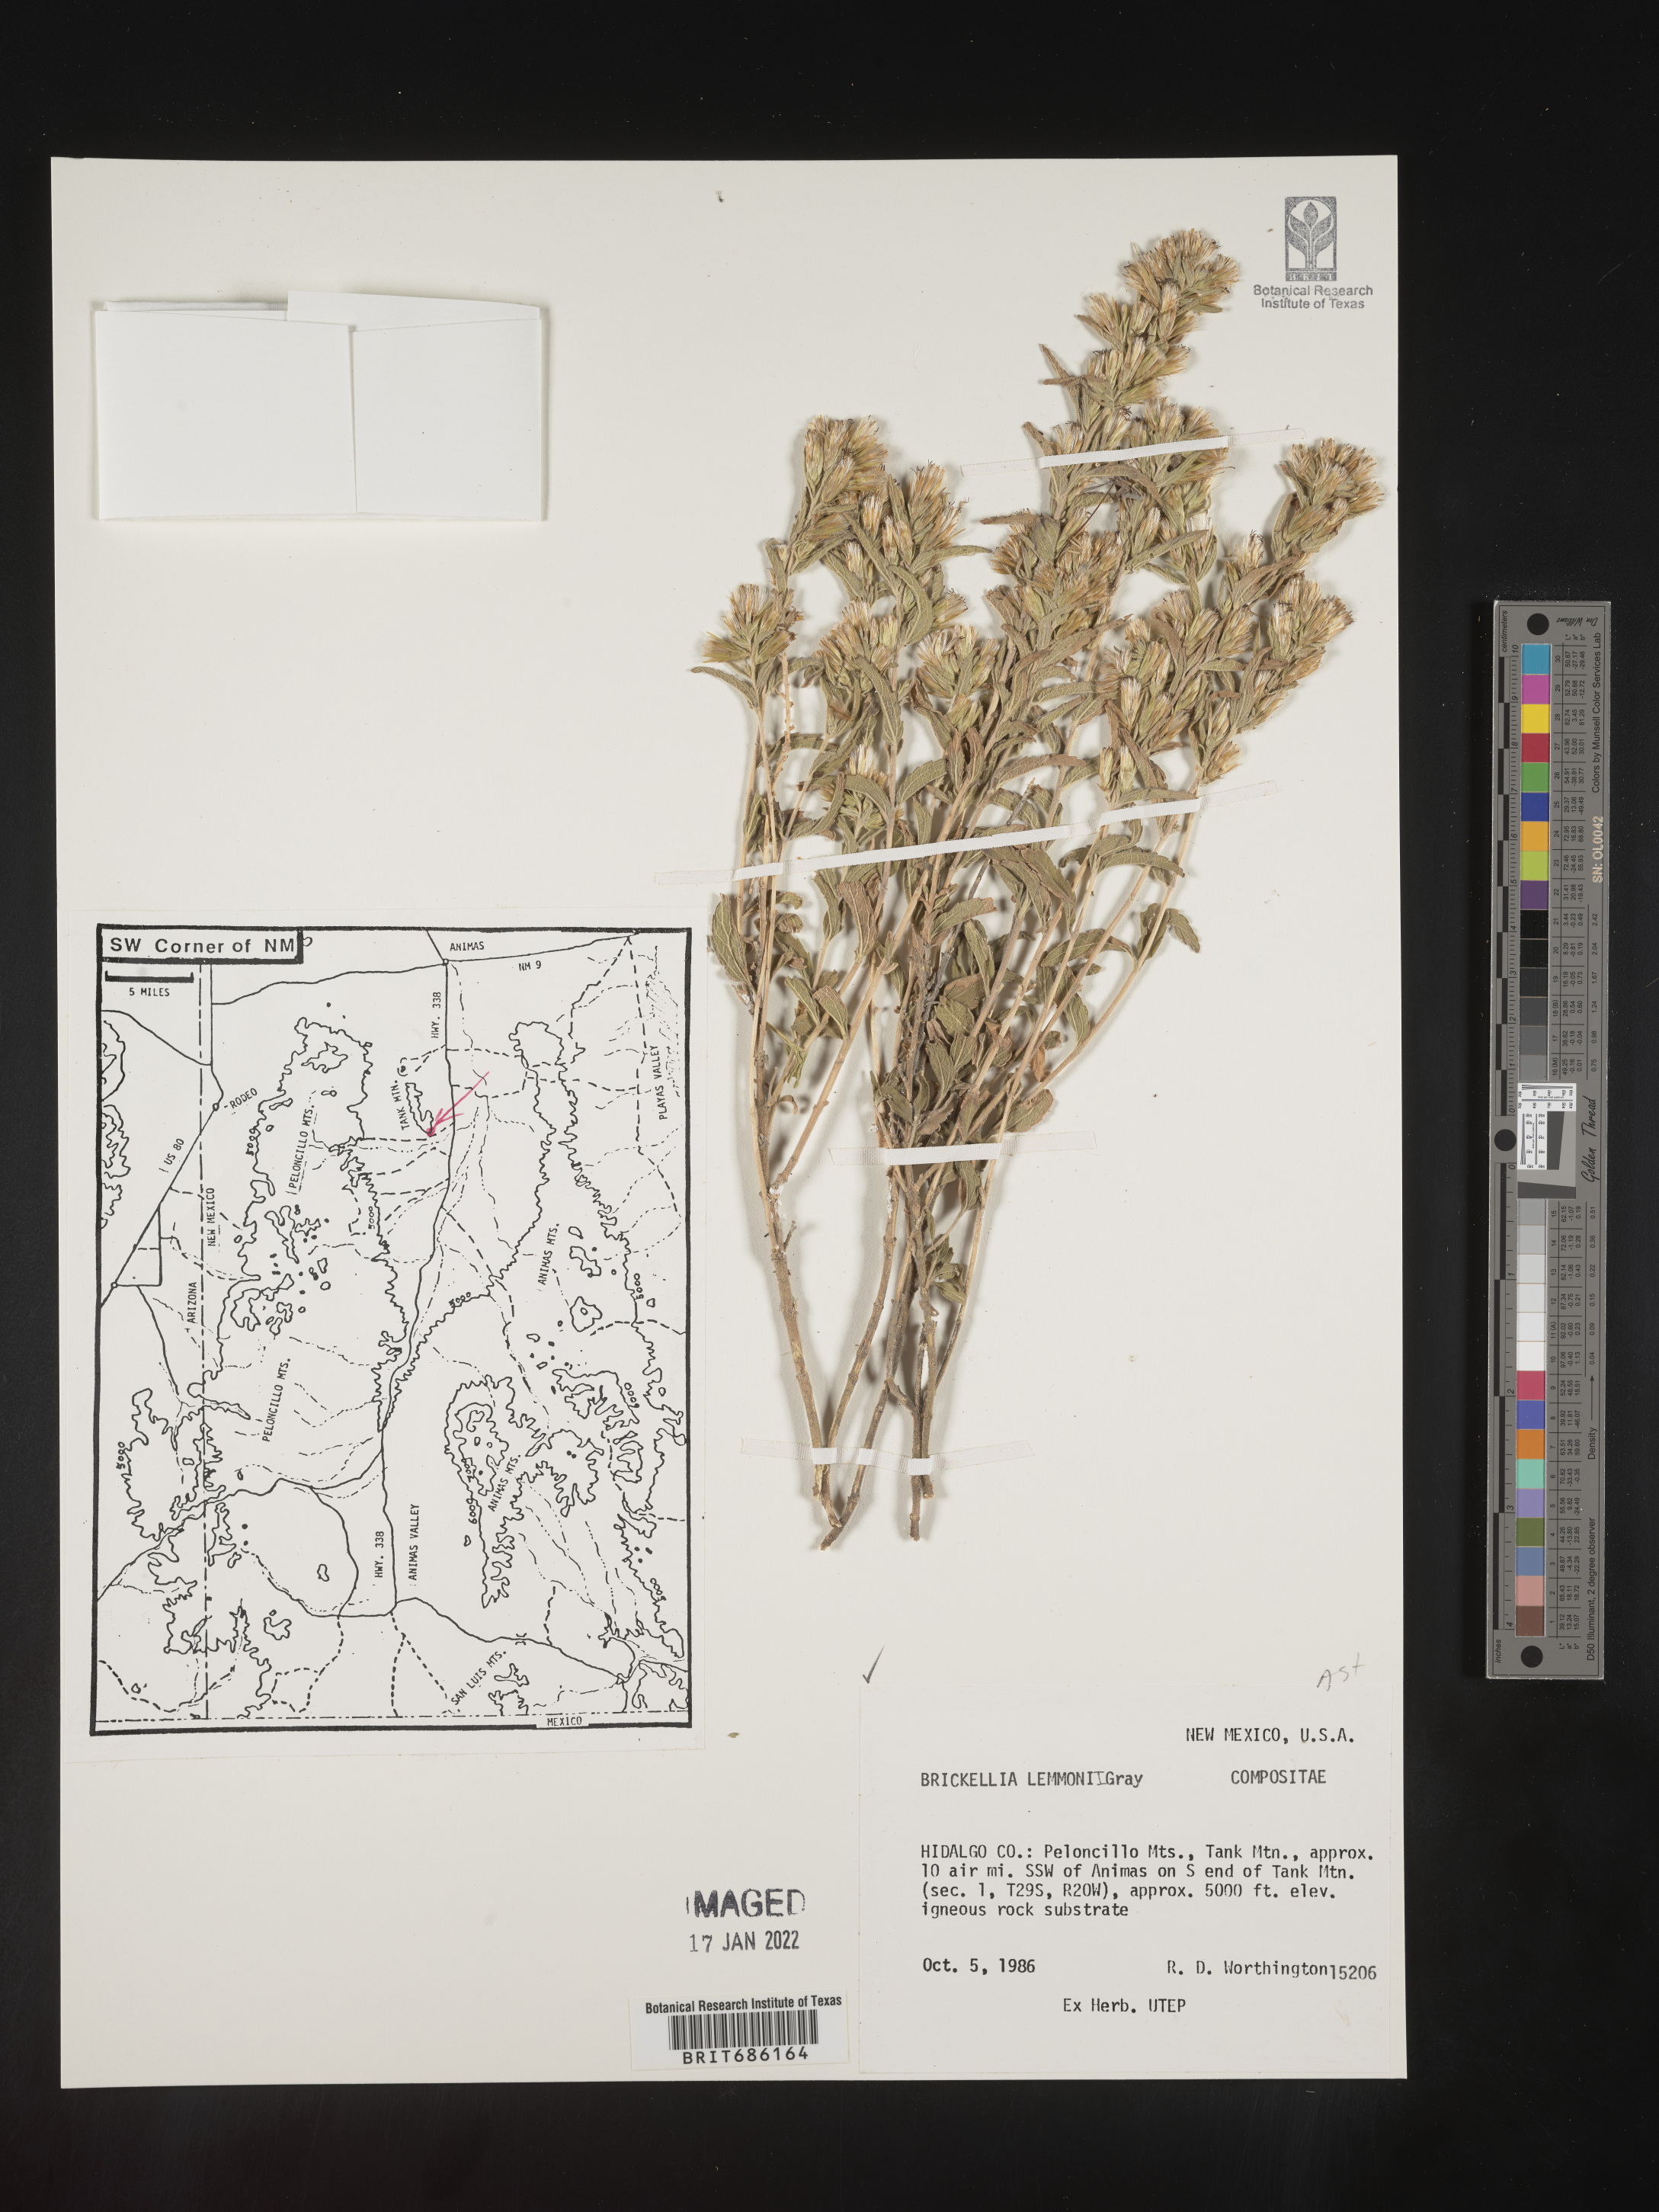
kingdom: Plantae
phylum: Tracheophyta
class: Magnoliopsida
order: Asterales
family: Asteraceae
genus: Brickellia
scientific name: Brickellia lemmonii
